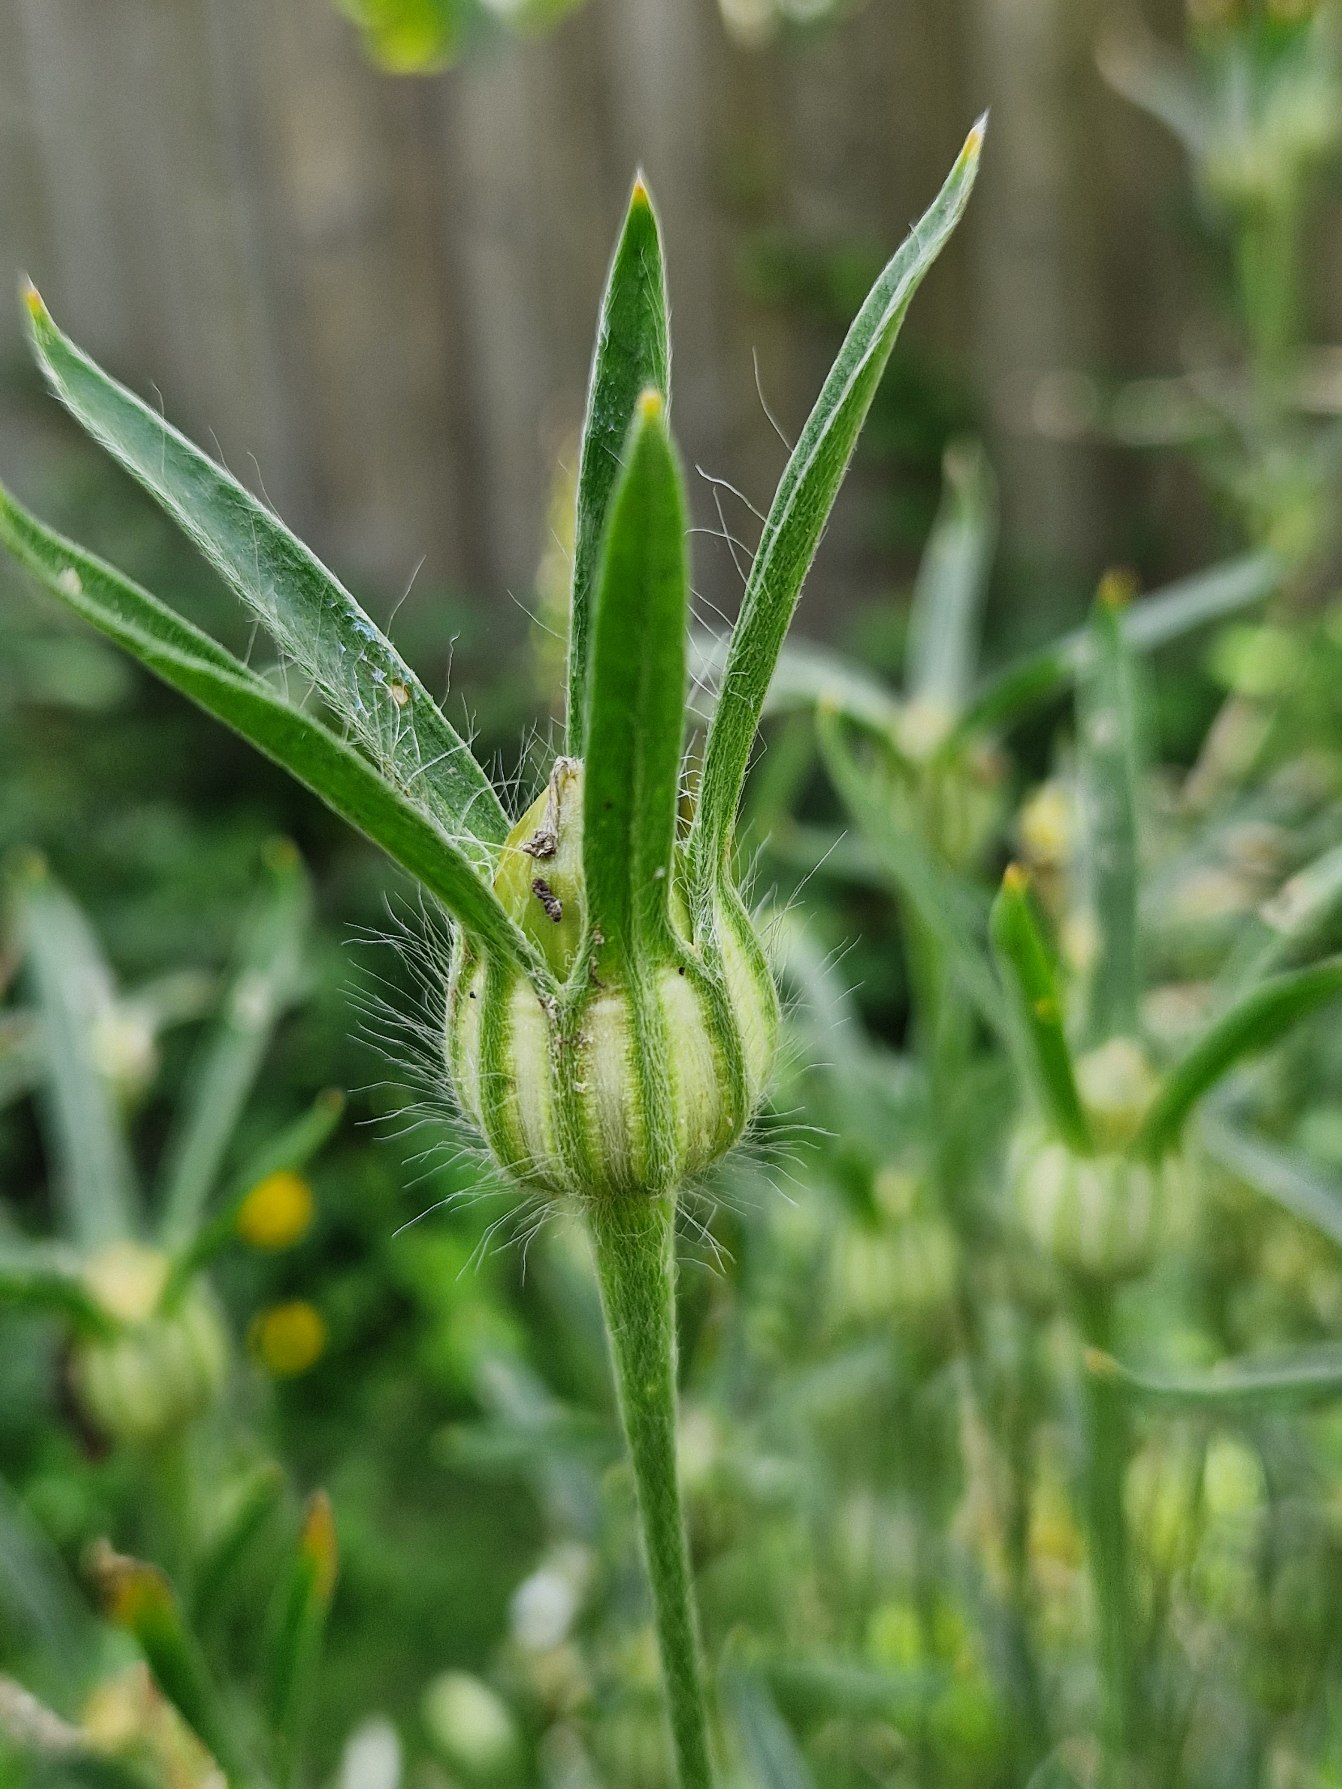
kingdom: Plantae
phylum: Tracheophyta
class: Magnoliopsida
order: Caryophyllales
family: Caryophyllaceae
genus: Agrostemma
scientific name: Agrostemma githago
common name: Klinte
